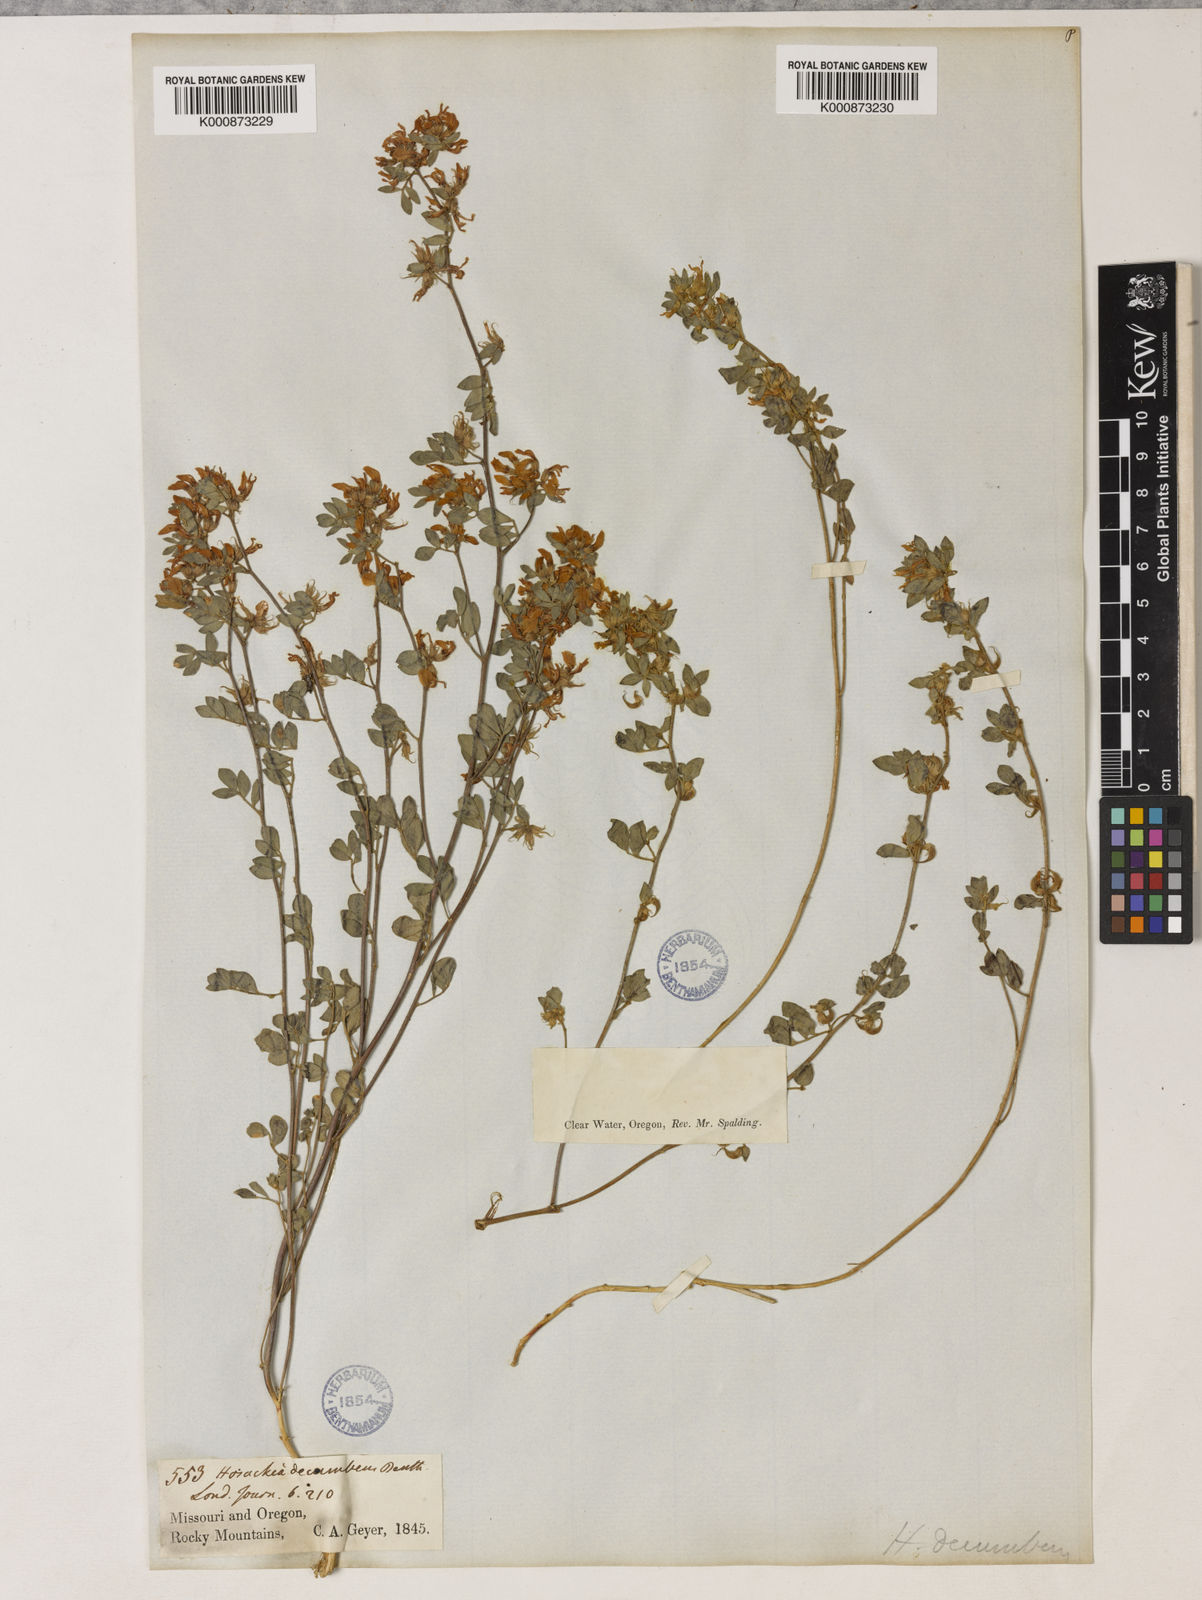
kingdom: Plantae
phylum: Tracheophyta
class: Magnoliopsida
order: Fabales
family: Fabaceae
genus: Acmispon
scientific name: Acmispon decumbens
